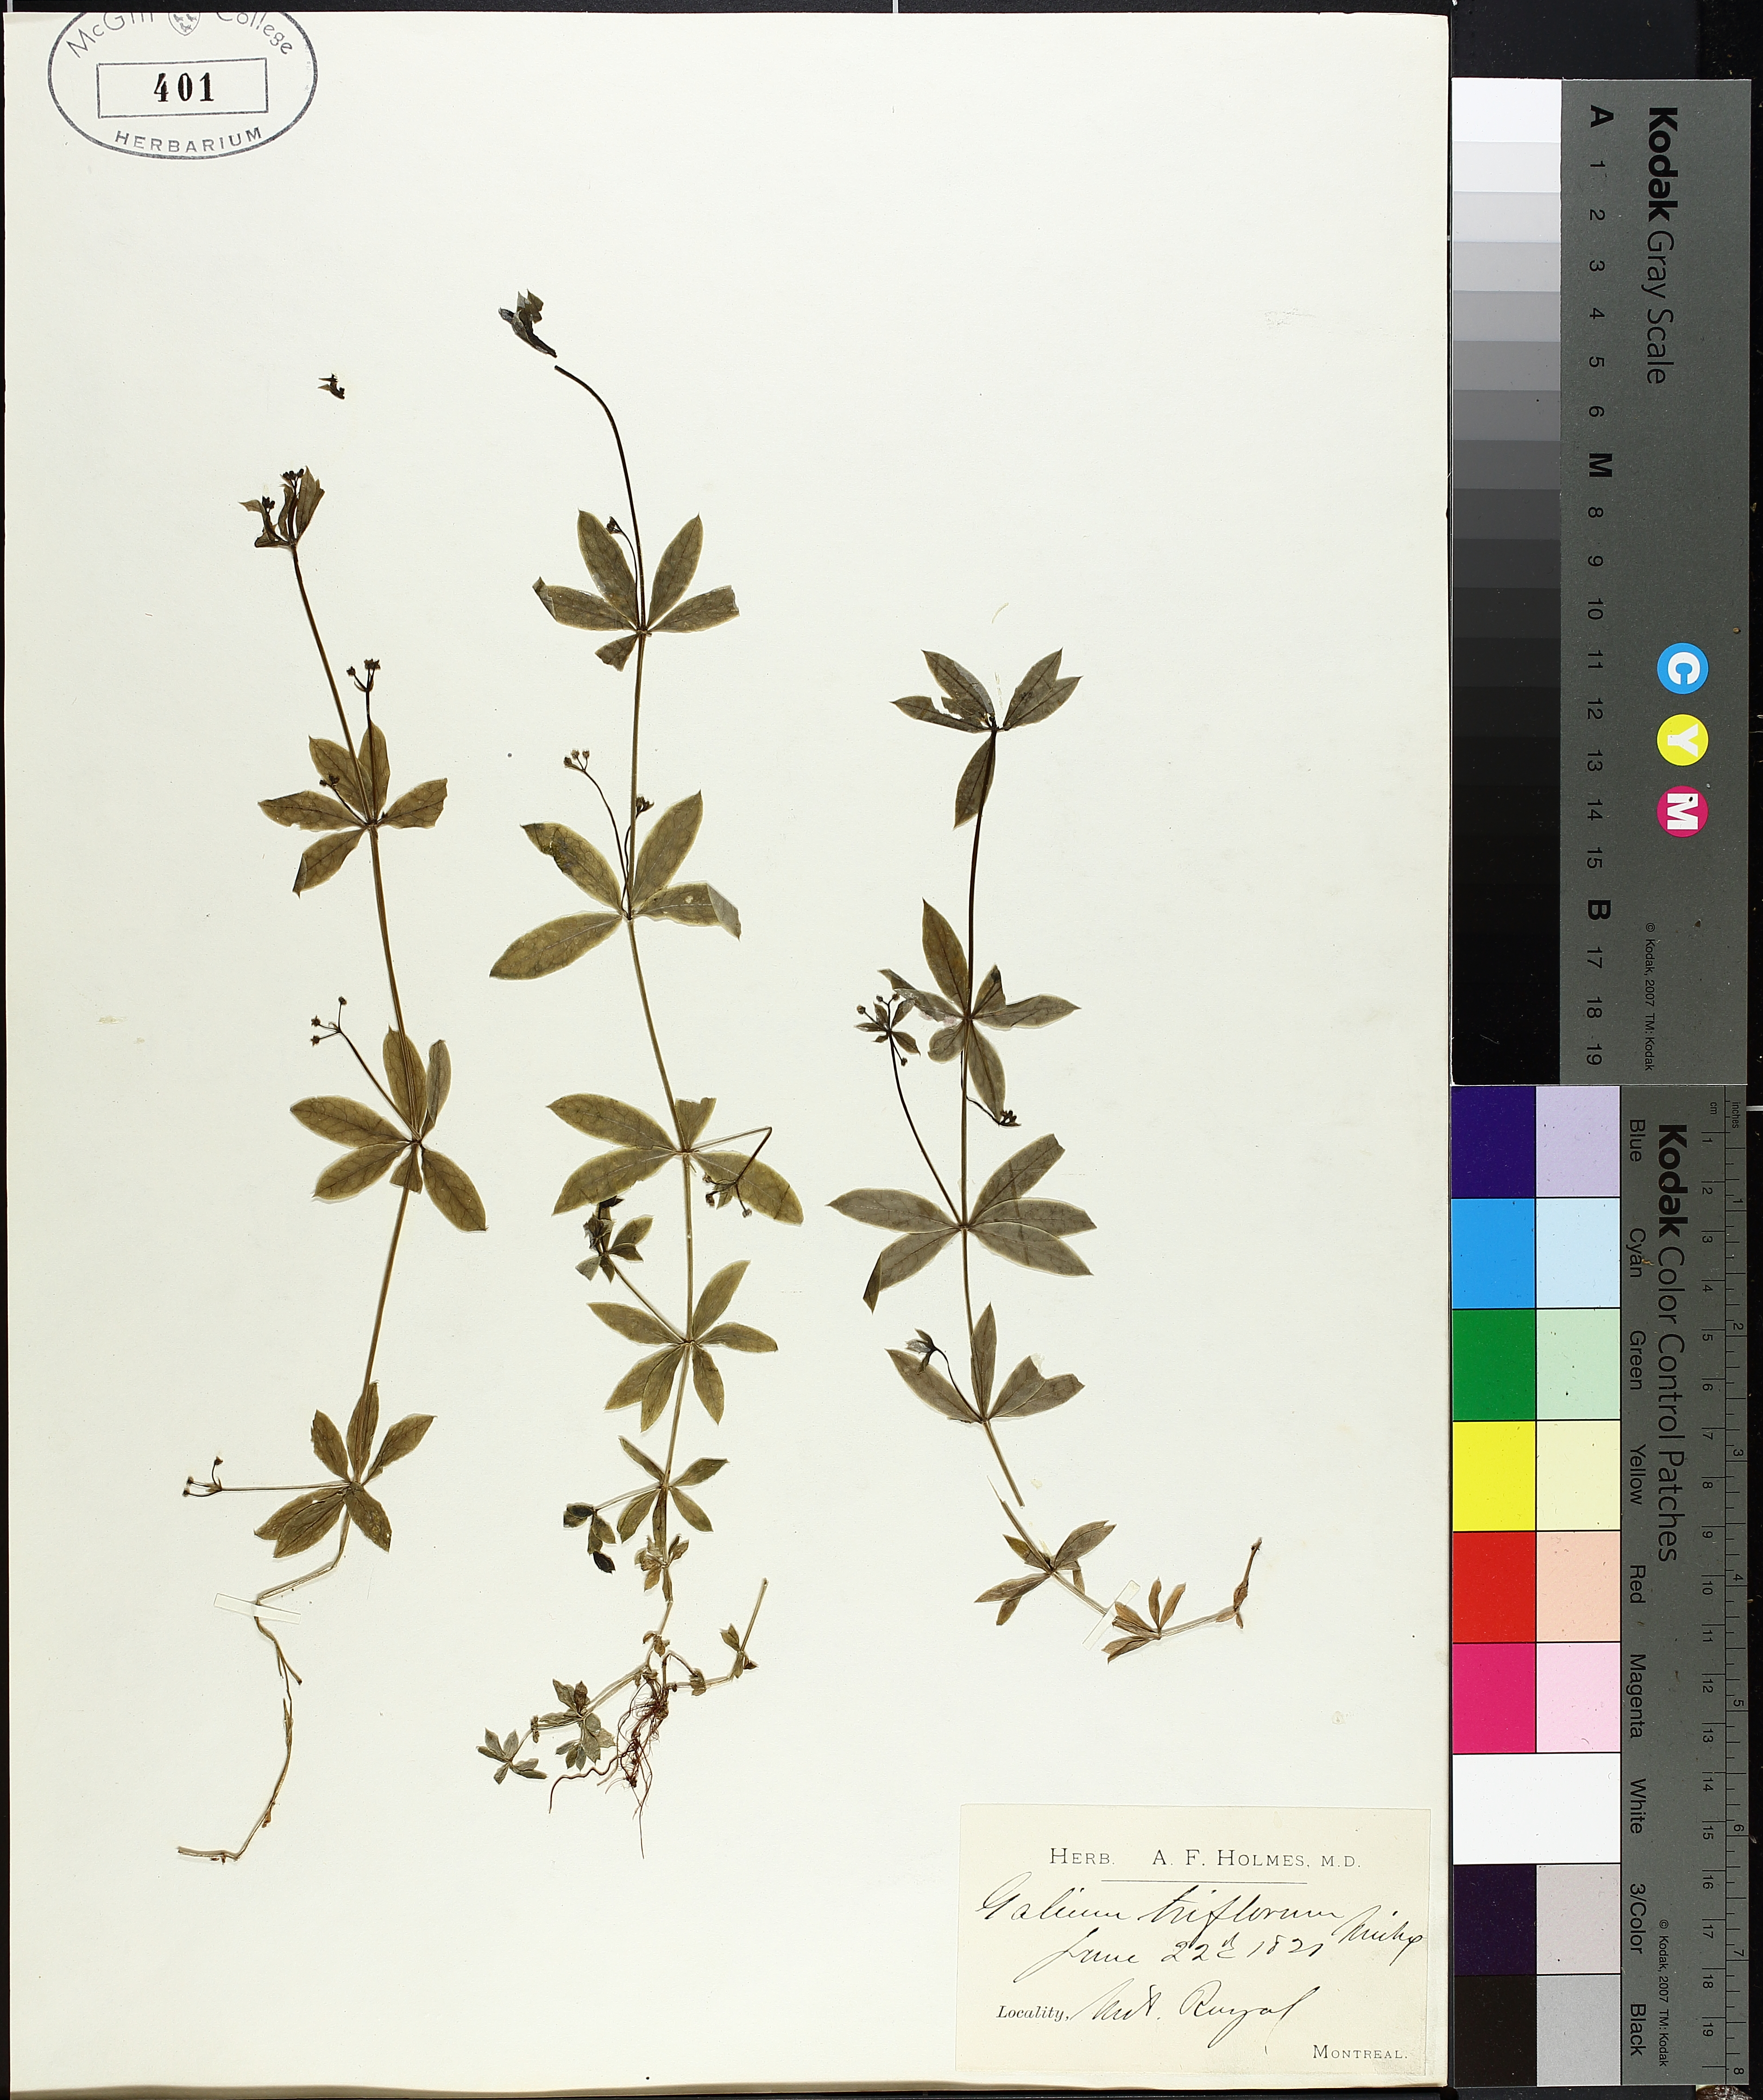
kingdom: Plantae
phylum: Tracheophyta
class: Magnoliopsida
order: Gentianales
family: Rubiaceae
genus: Galium
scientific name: Galium triflorum
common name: Fragrant bedstraw
